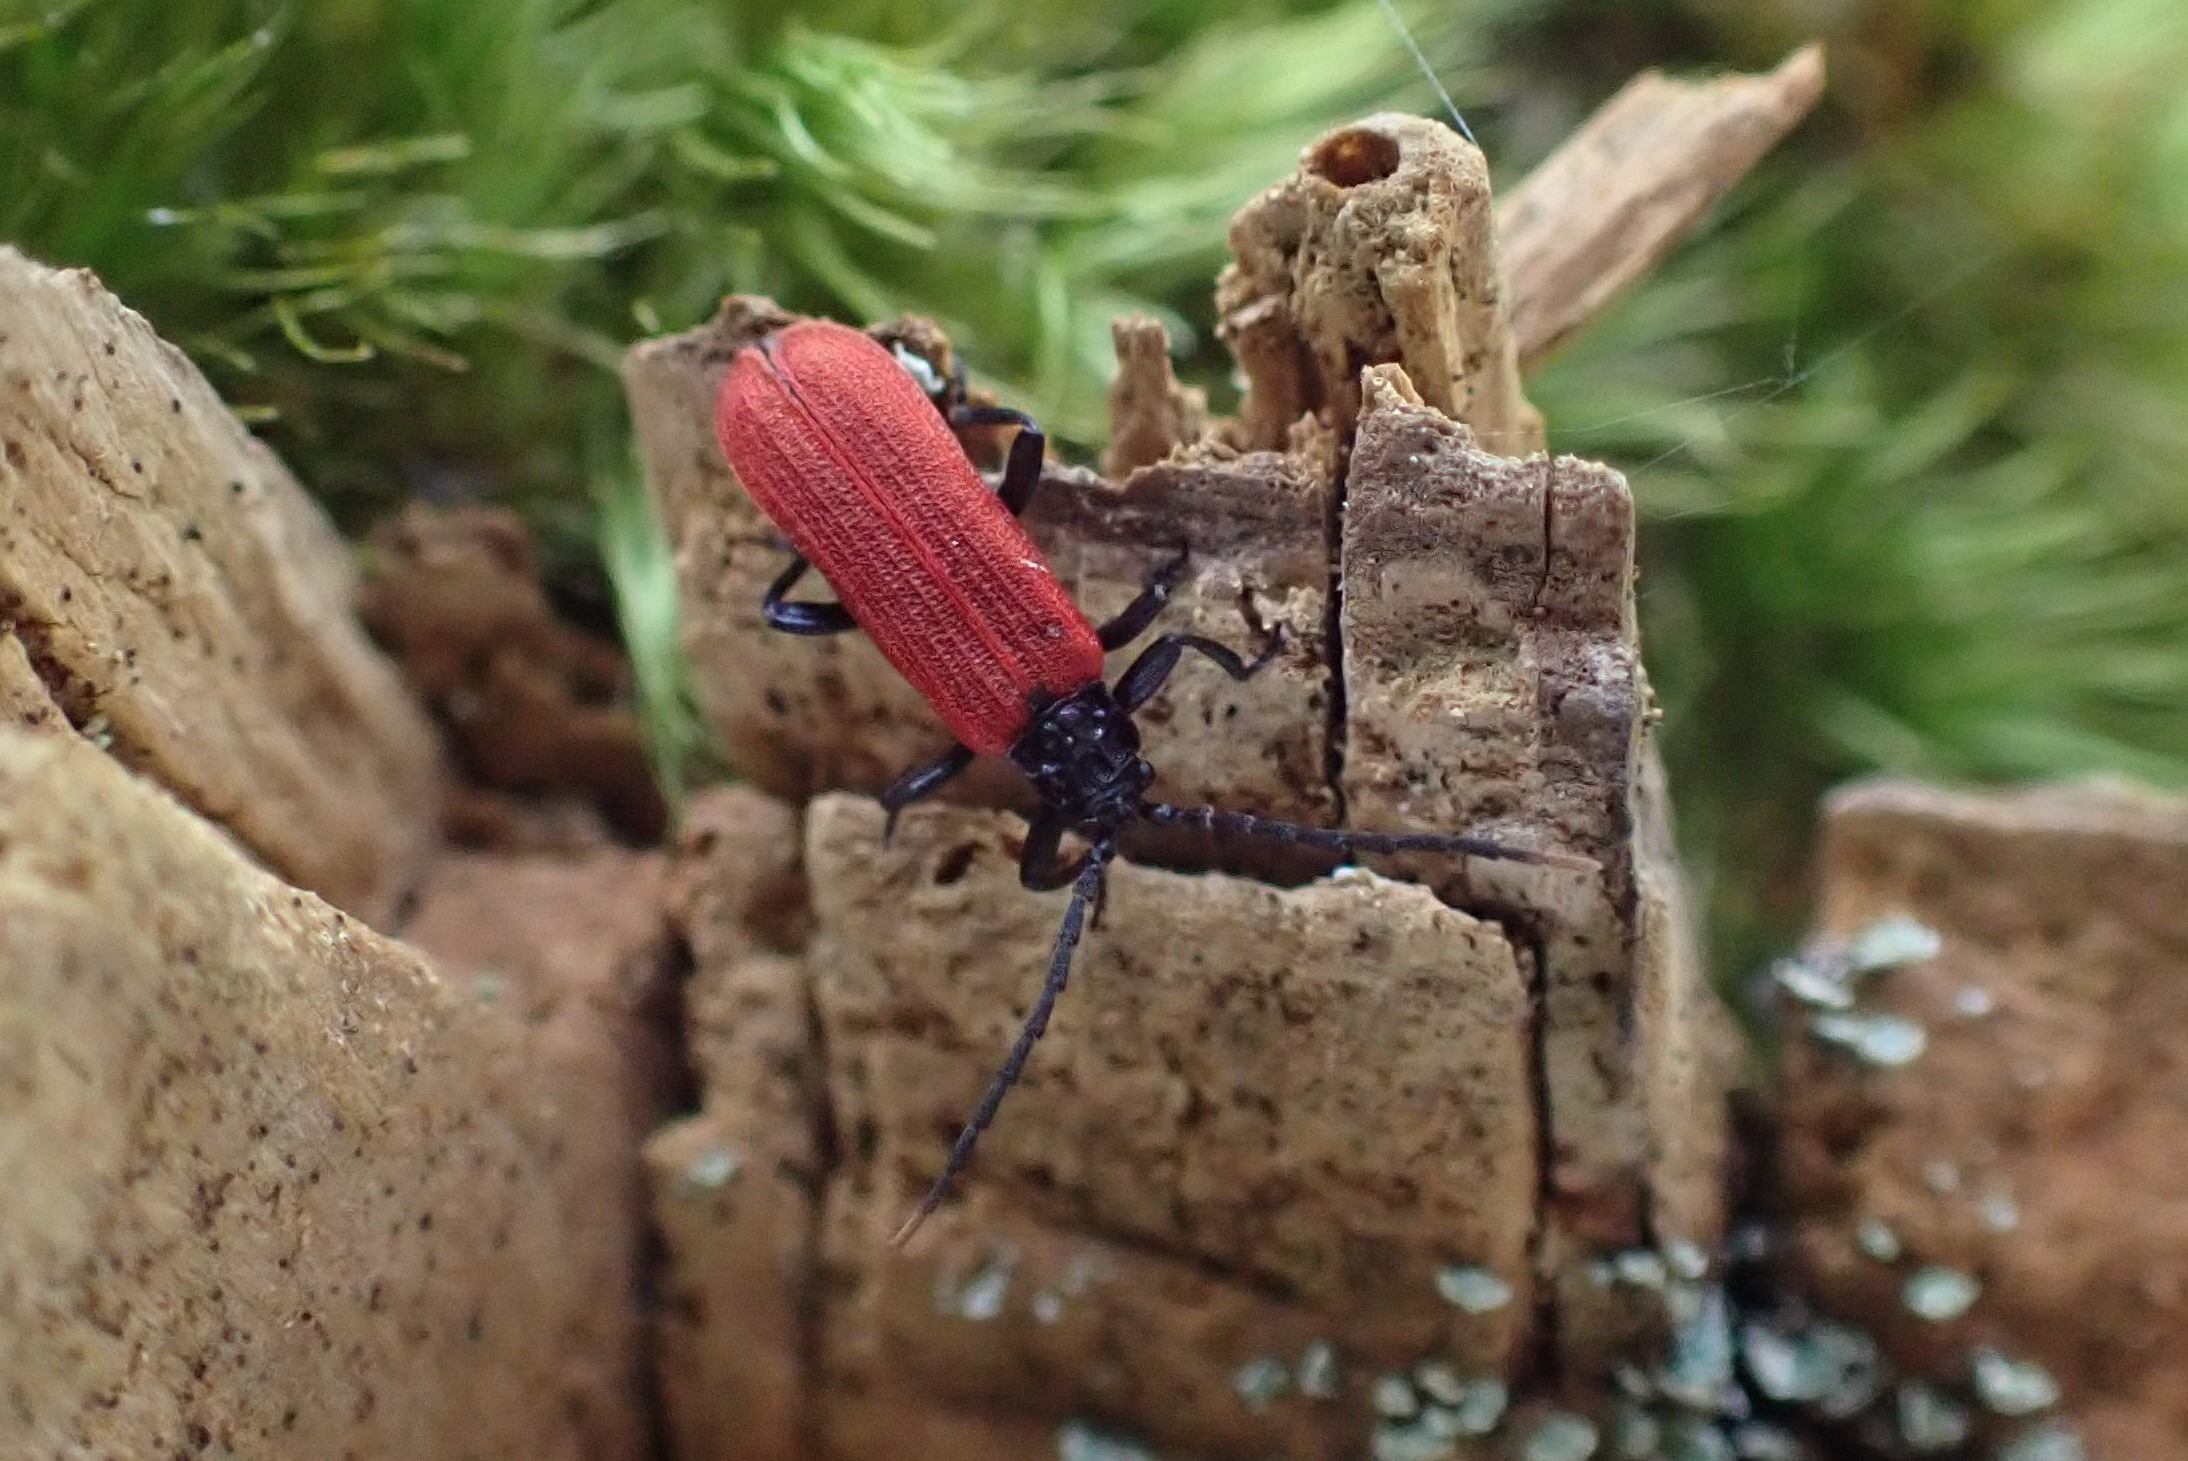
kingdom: Animalia
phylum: Arthropoda
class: Insecta
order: Coleoptera
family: Lycidae
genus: Platycis
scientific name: Platycis minutus
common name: Lille maskebille
